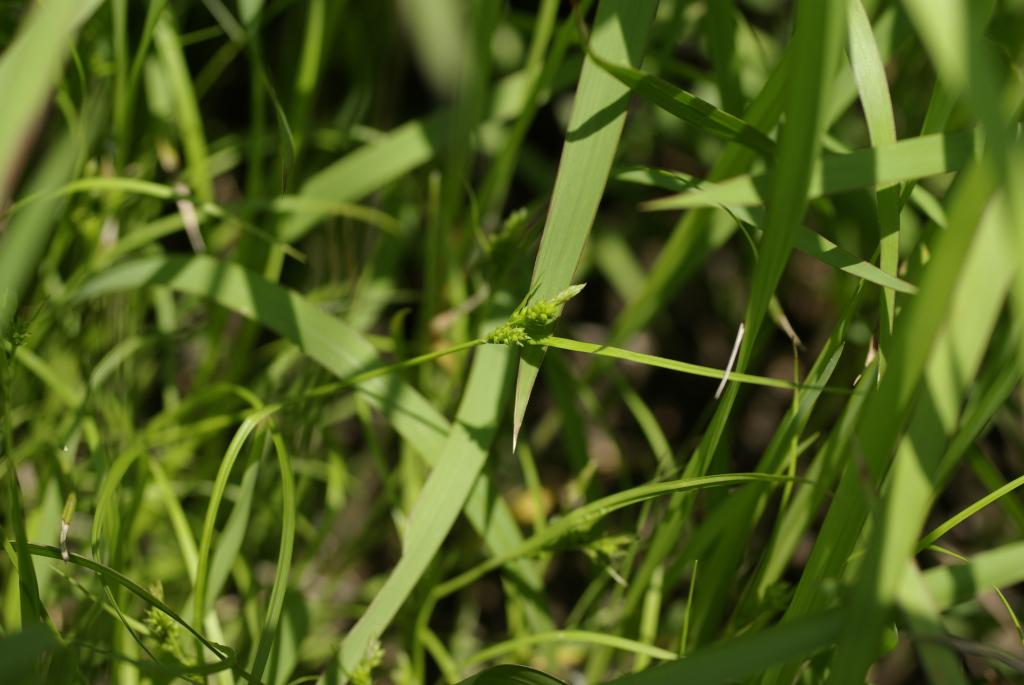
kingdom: Plantae
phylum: Tracheophyta
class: Liliopsida
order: Poales
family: Cyperaceae
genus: Carex
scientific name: Carex breviculmis
